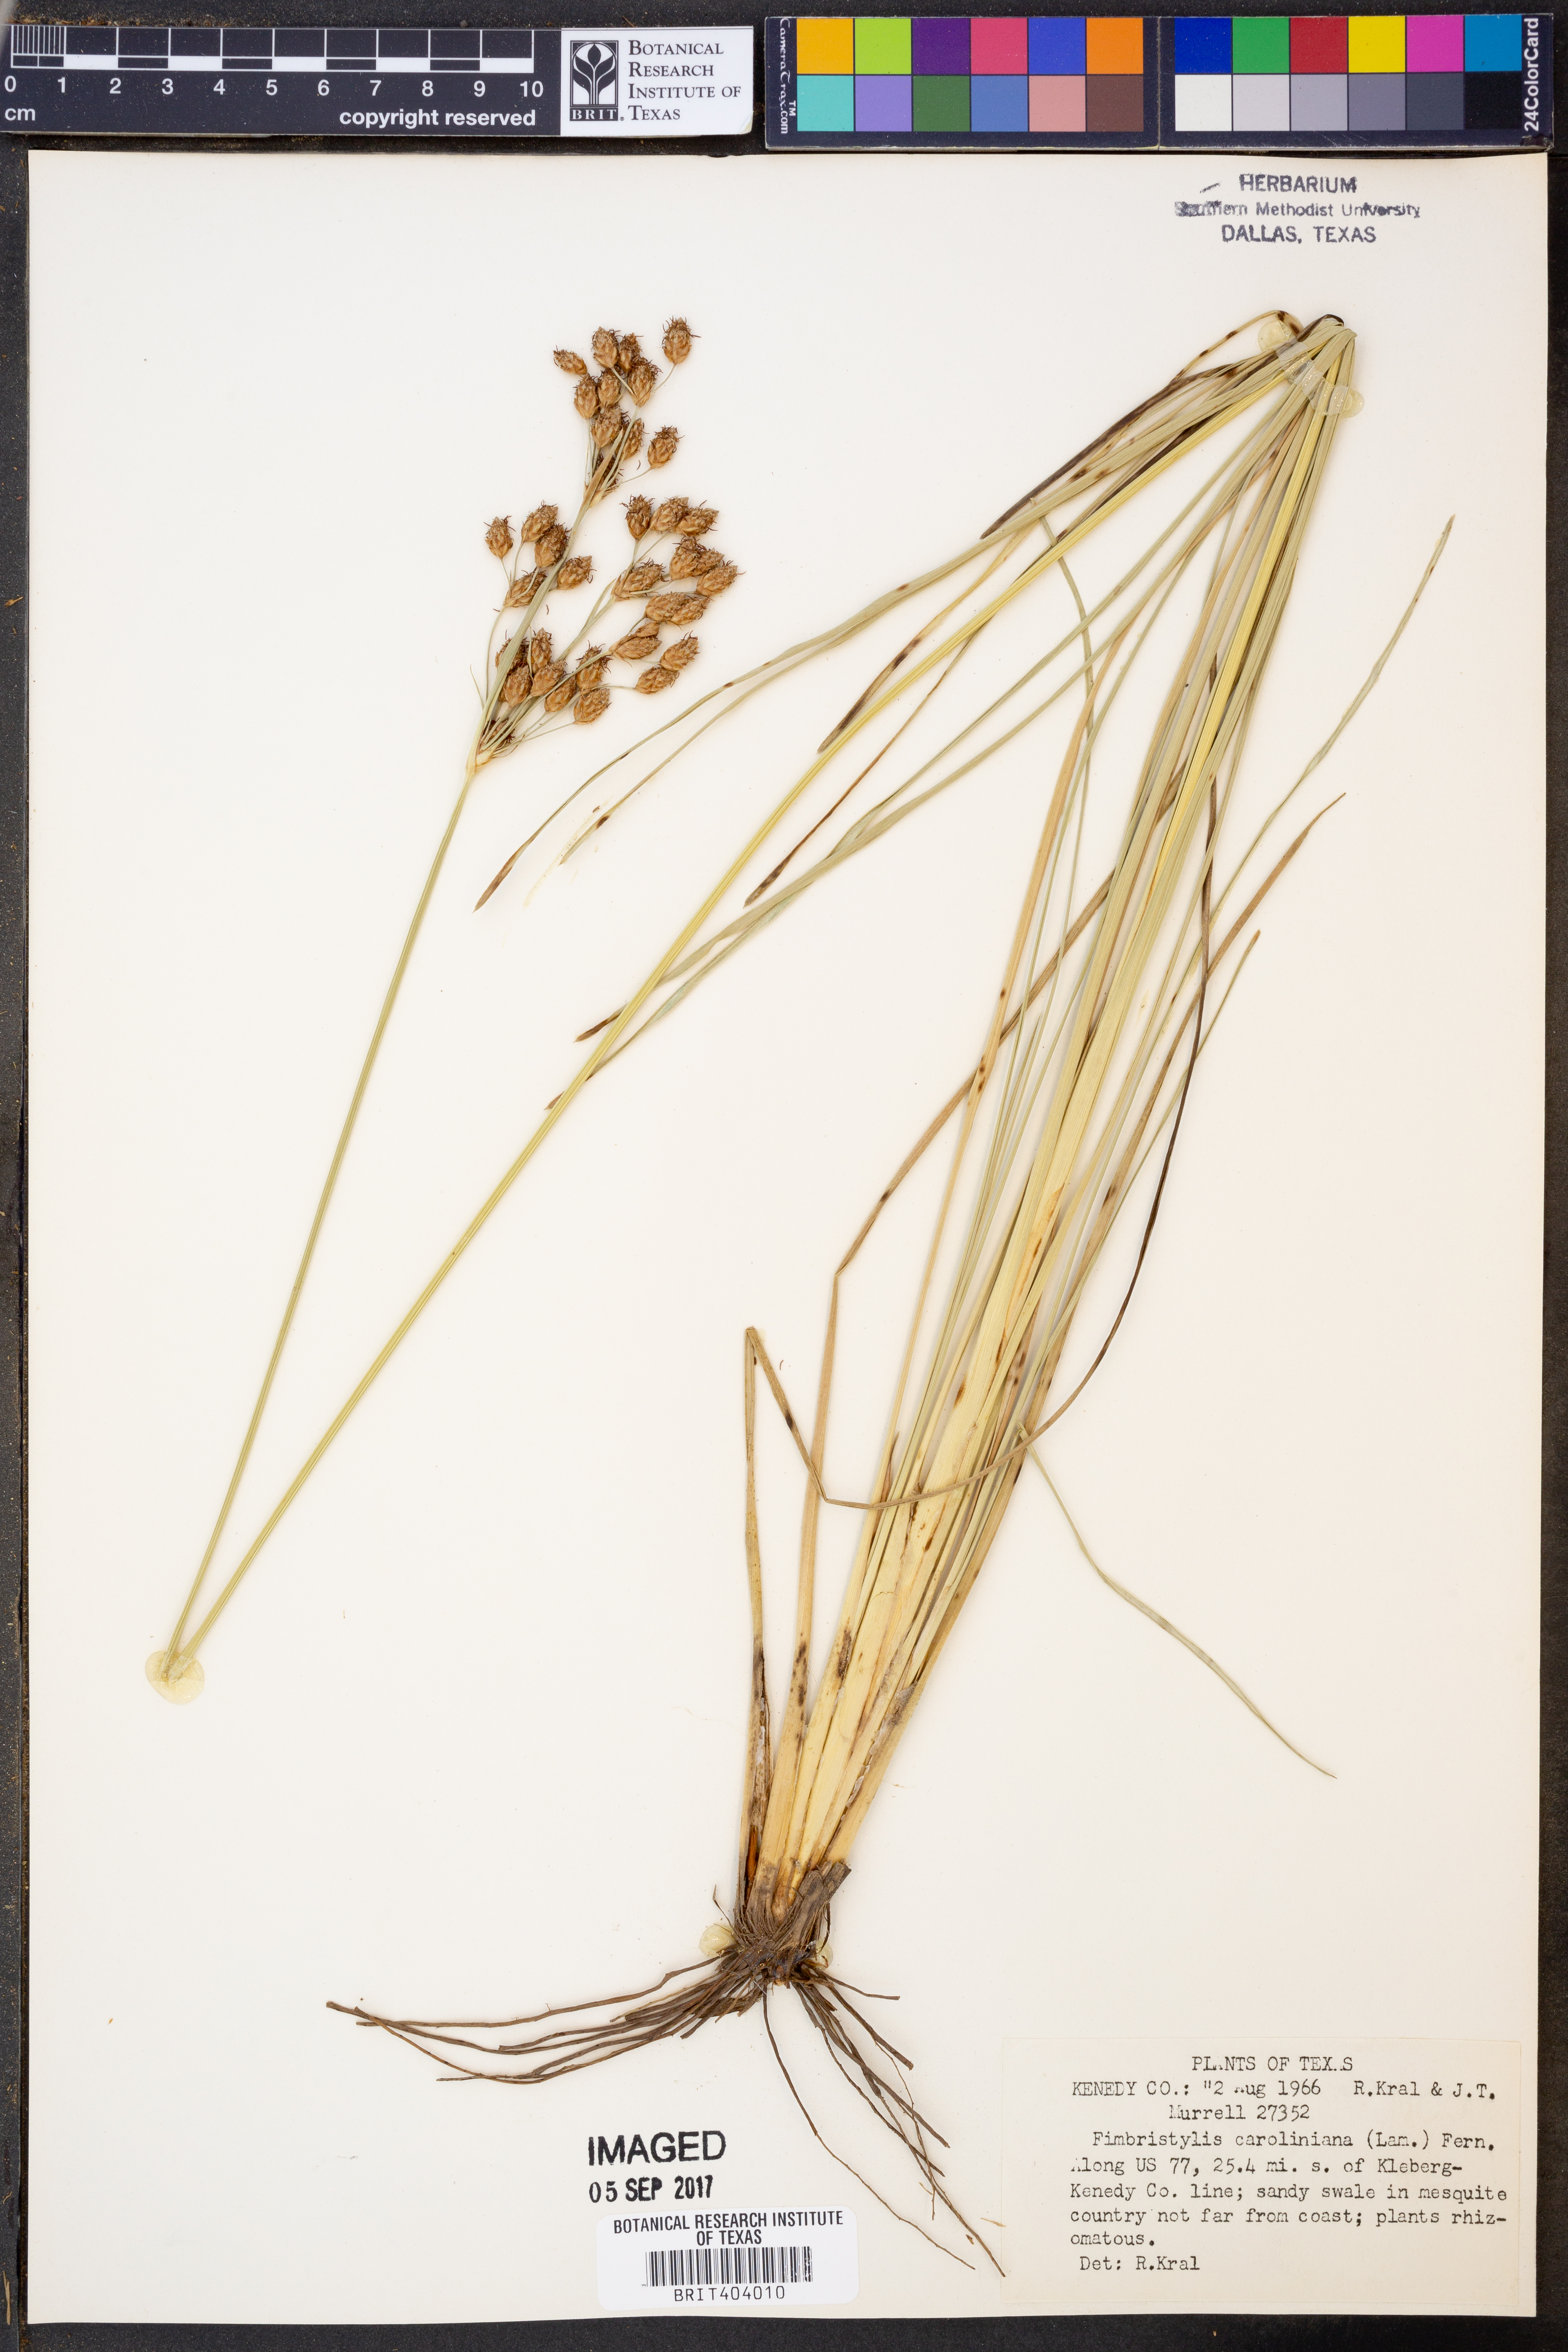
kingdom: Plantae
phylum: Tracheophyta
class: Liliopsida
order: Poales
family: Cyperaceae
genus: Fimbristylis
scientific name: Fimbristylis caroliniana
